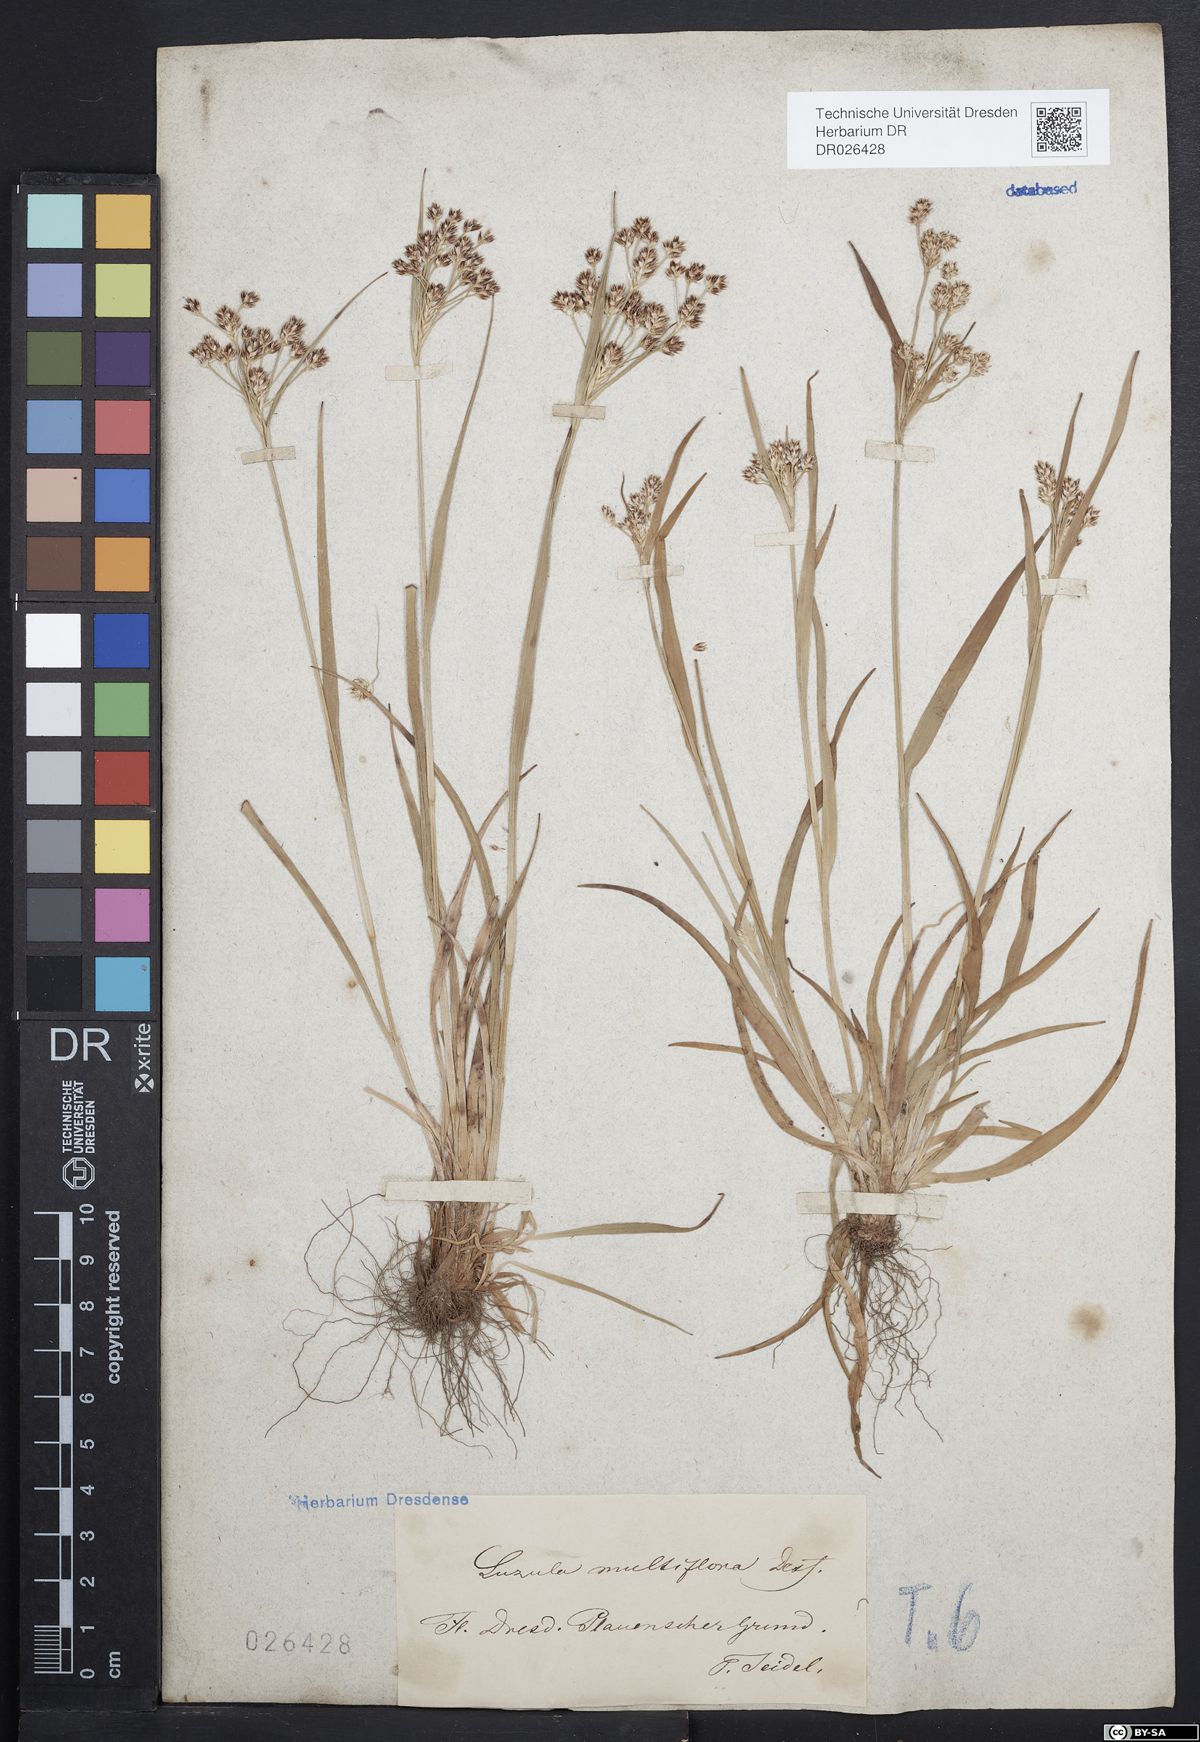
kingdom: Plantae
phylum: Tracheophyta
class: Liliopsida
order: Poales
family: Juncaceae
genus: Luzula
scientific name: Luzula multiflora
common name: Heath wood-rush
